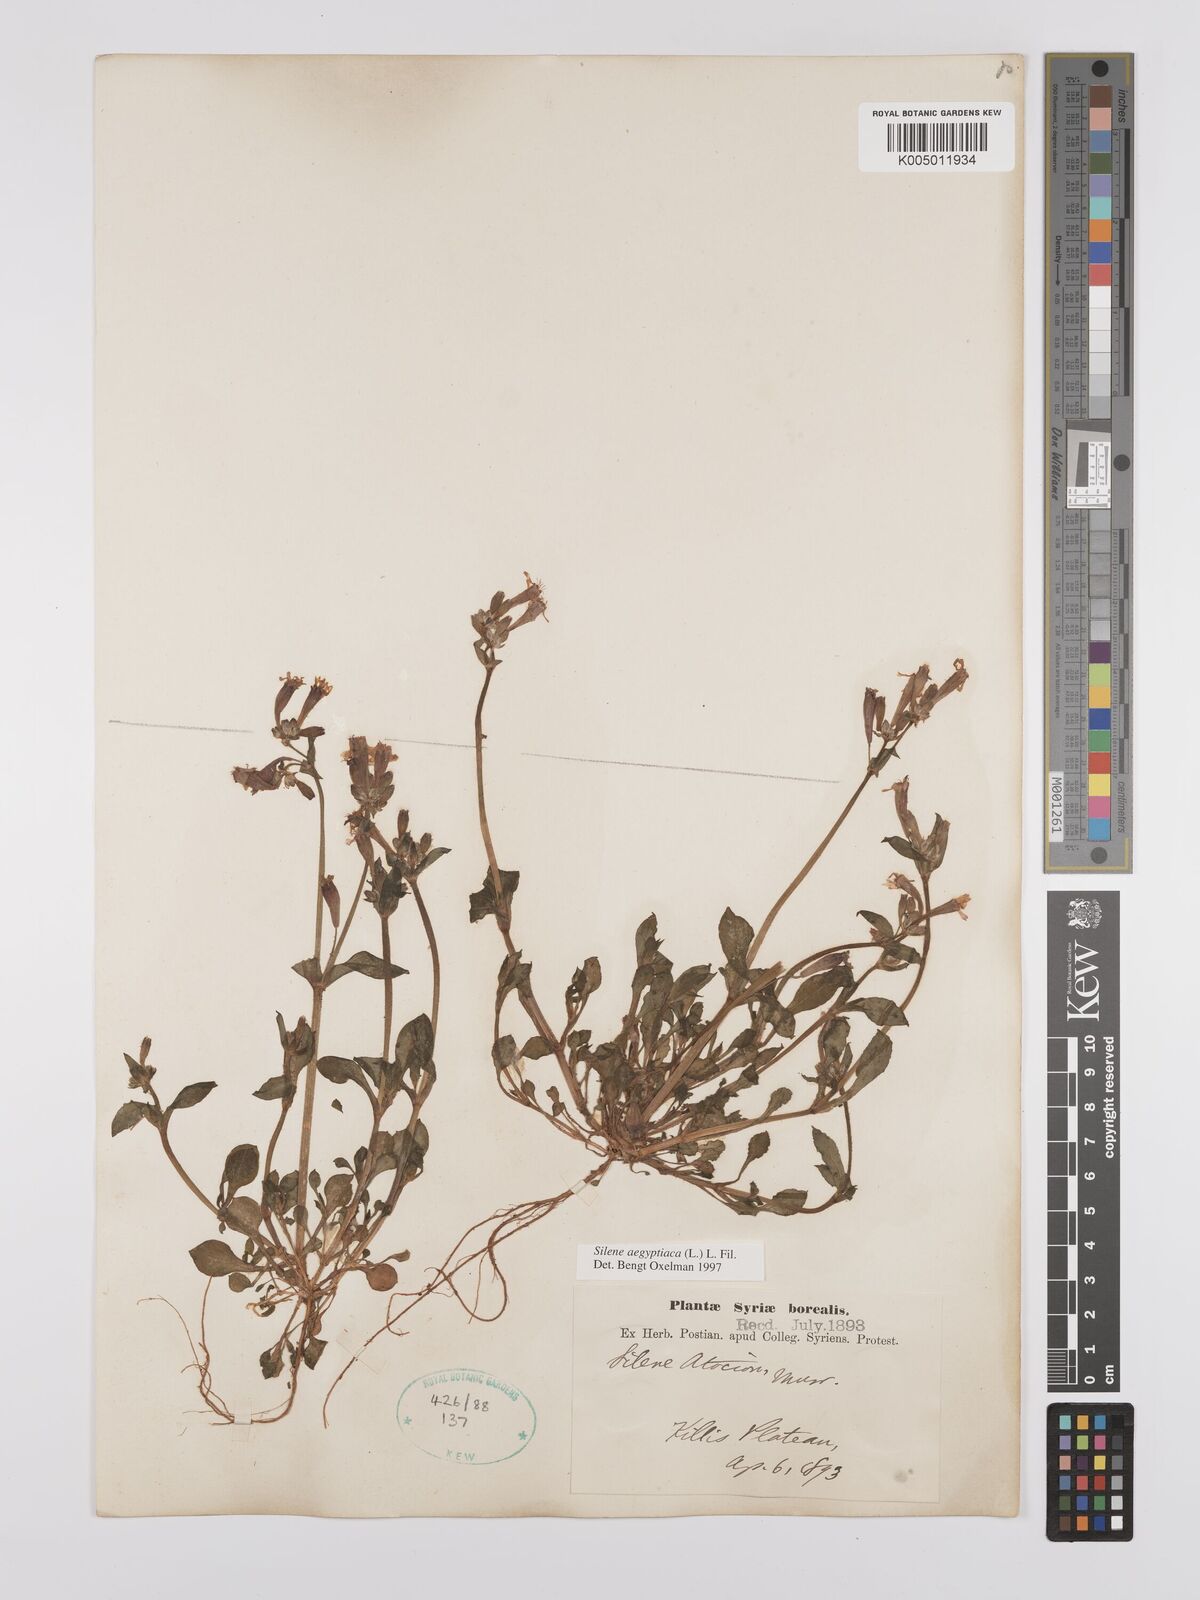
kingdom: Plantae
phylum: Tracheophyta
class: Magnoliopsida
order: Caryophyllales
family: Caryophyllaceae
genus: Silene
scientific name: Silene aegyptiaca
